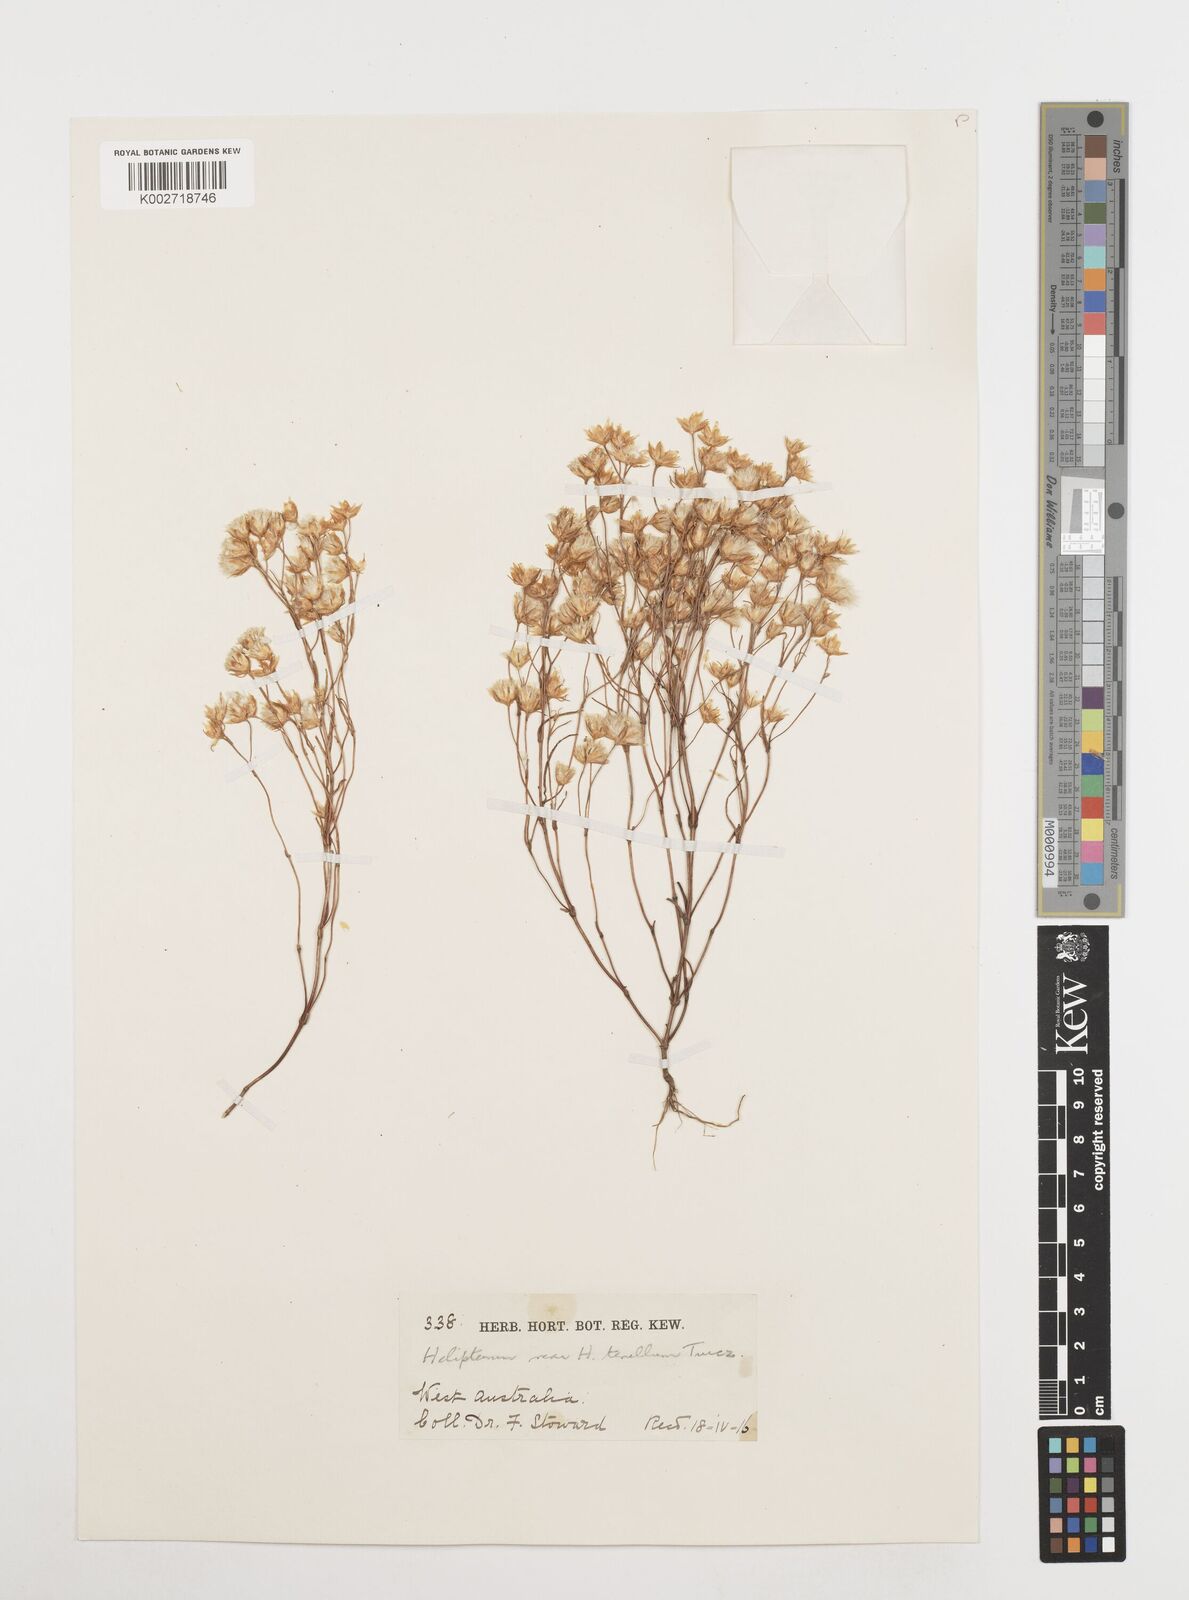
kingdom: Plantae
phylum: Tracheophyta
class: Magnoliopsida
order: Asterales
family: Asteraceae
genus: Erymophyllum
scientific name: Erymophyllum tenellum
